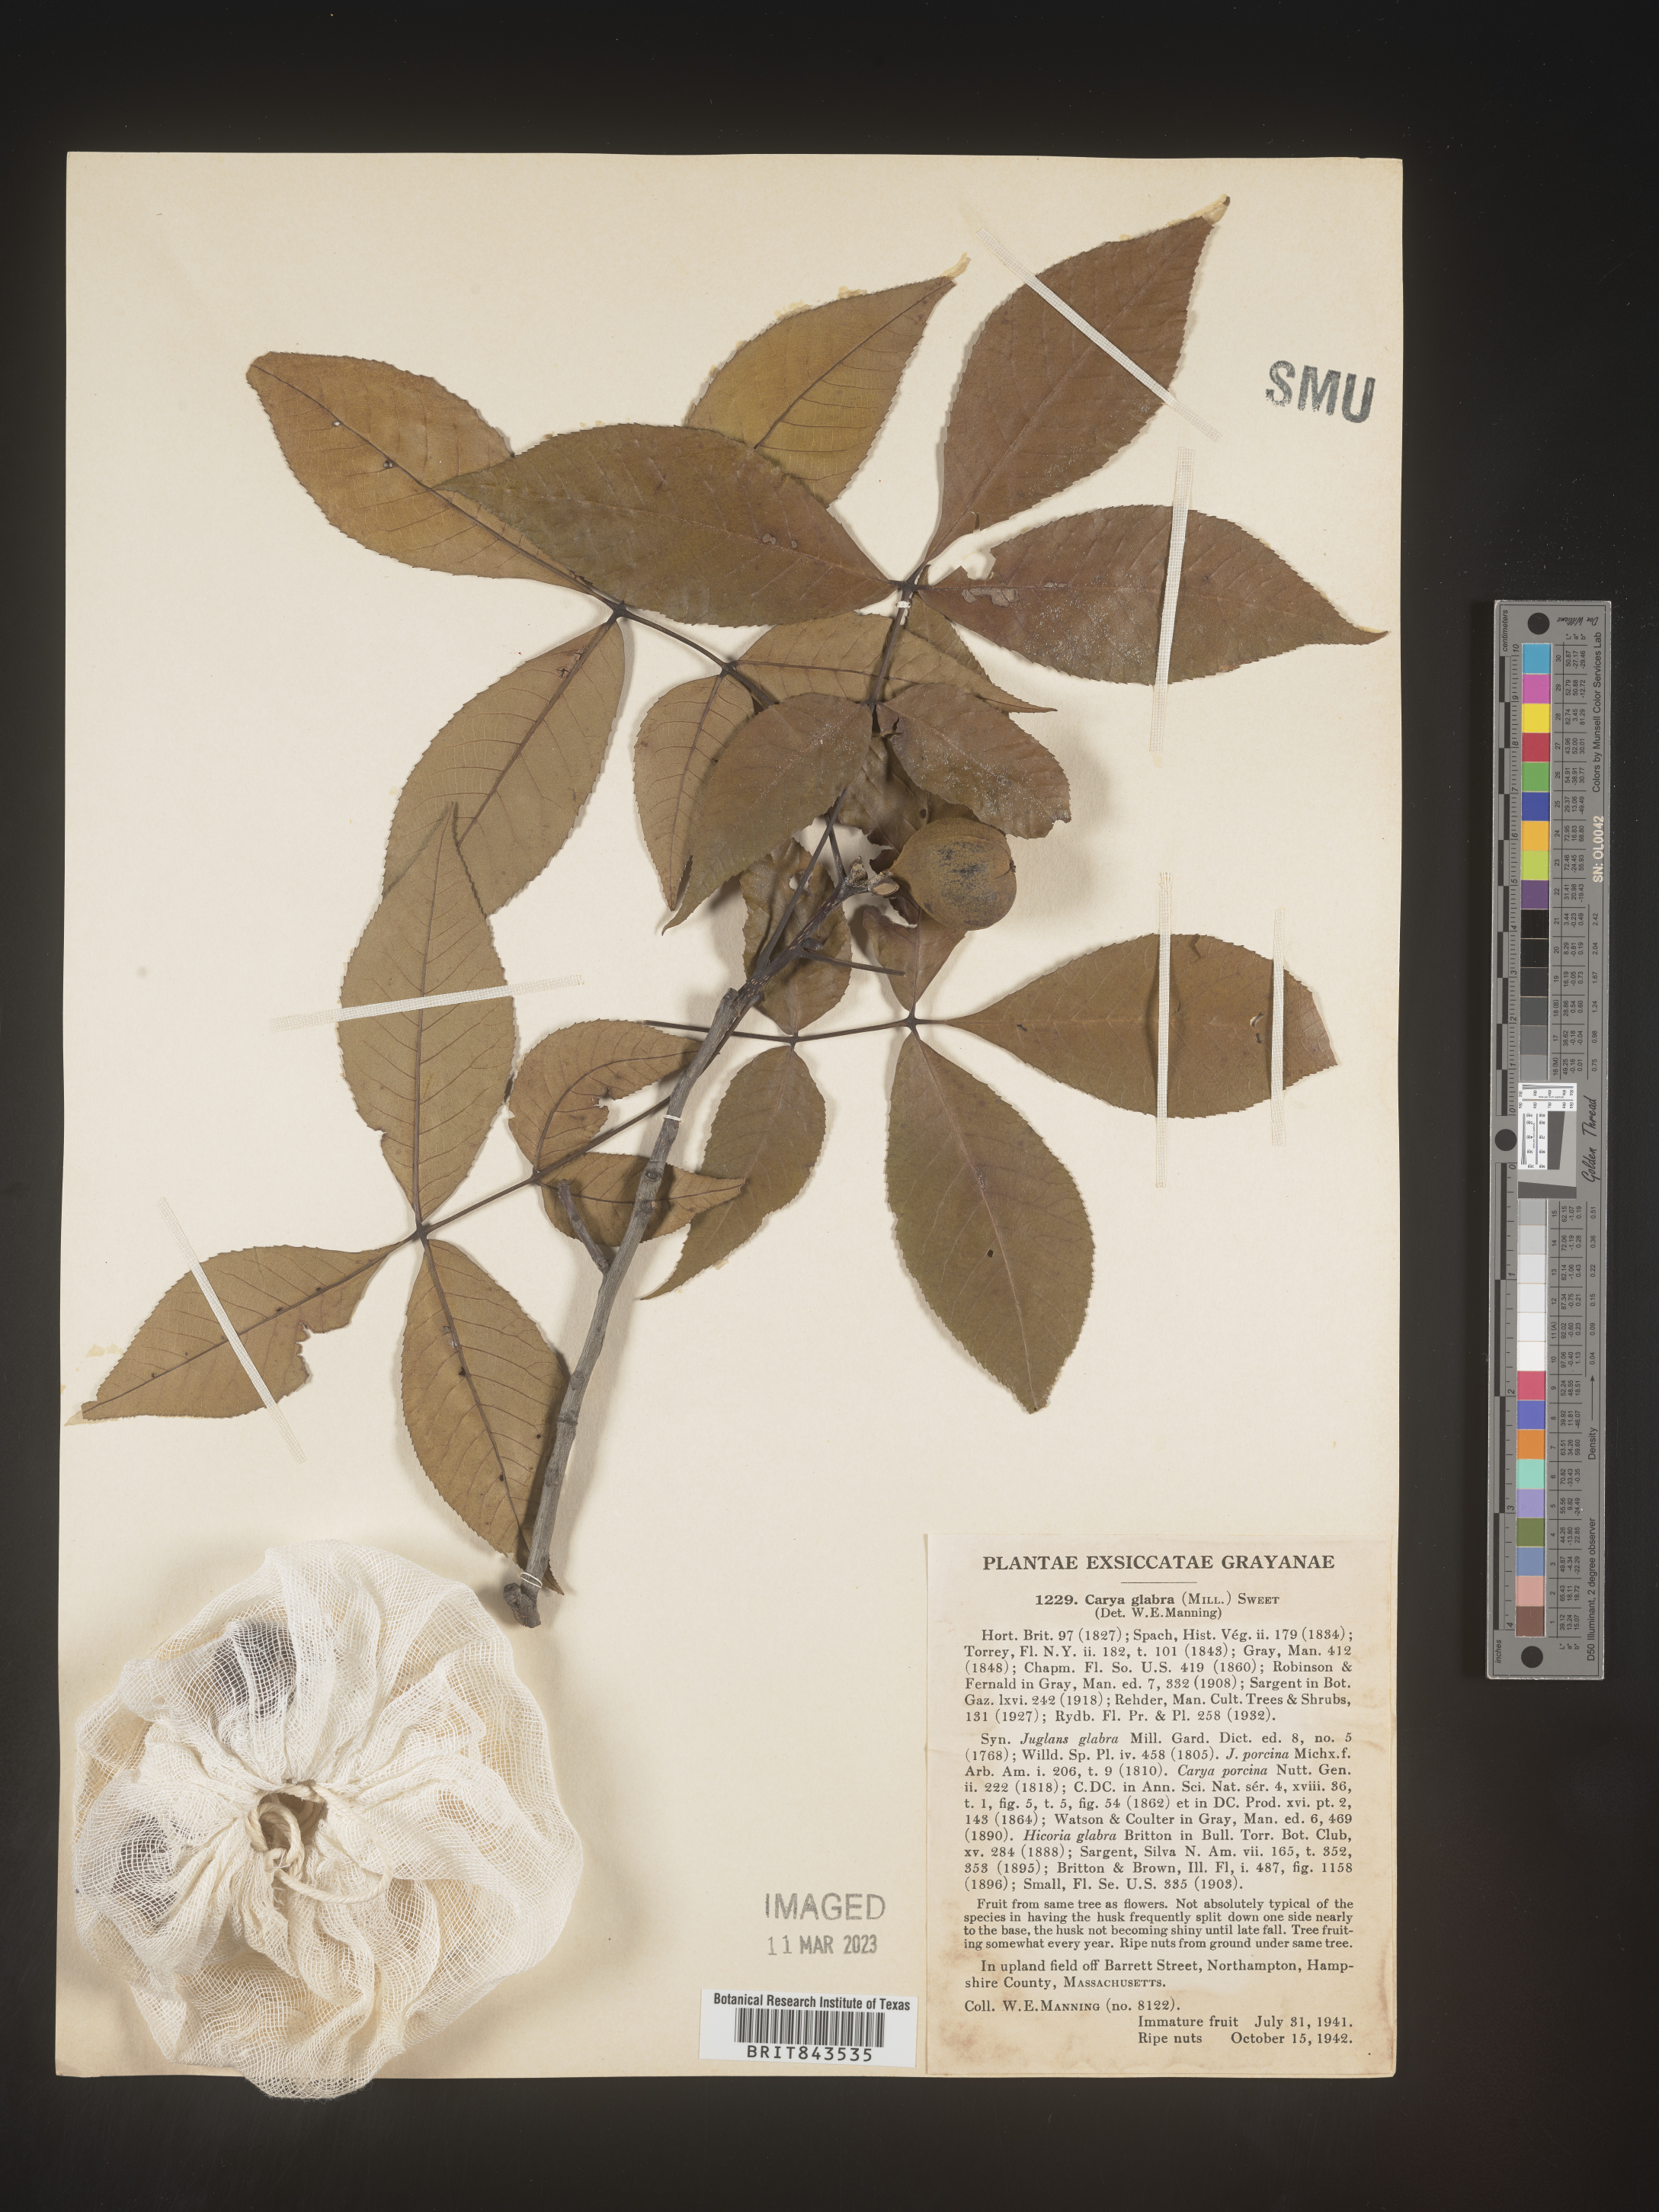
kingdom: Plantae
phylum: Tracheophyta
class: Magnoliopsida
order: Fagales
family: Juglandaceae
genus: Carya
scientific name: Carya glabra
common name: Pignut hickory
